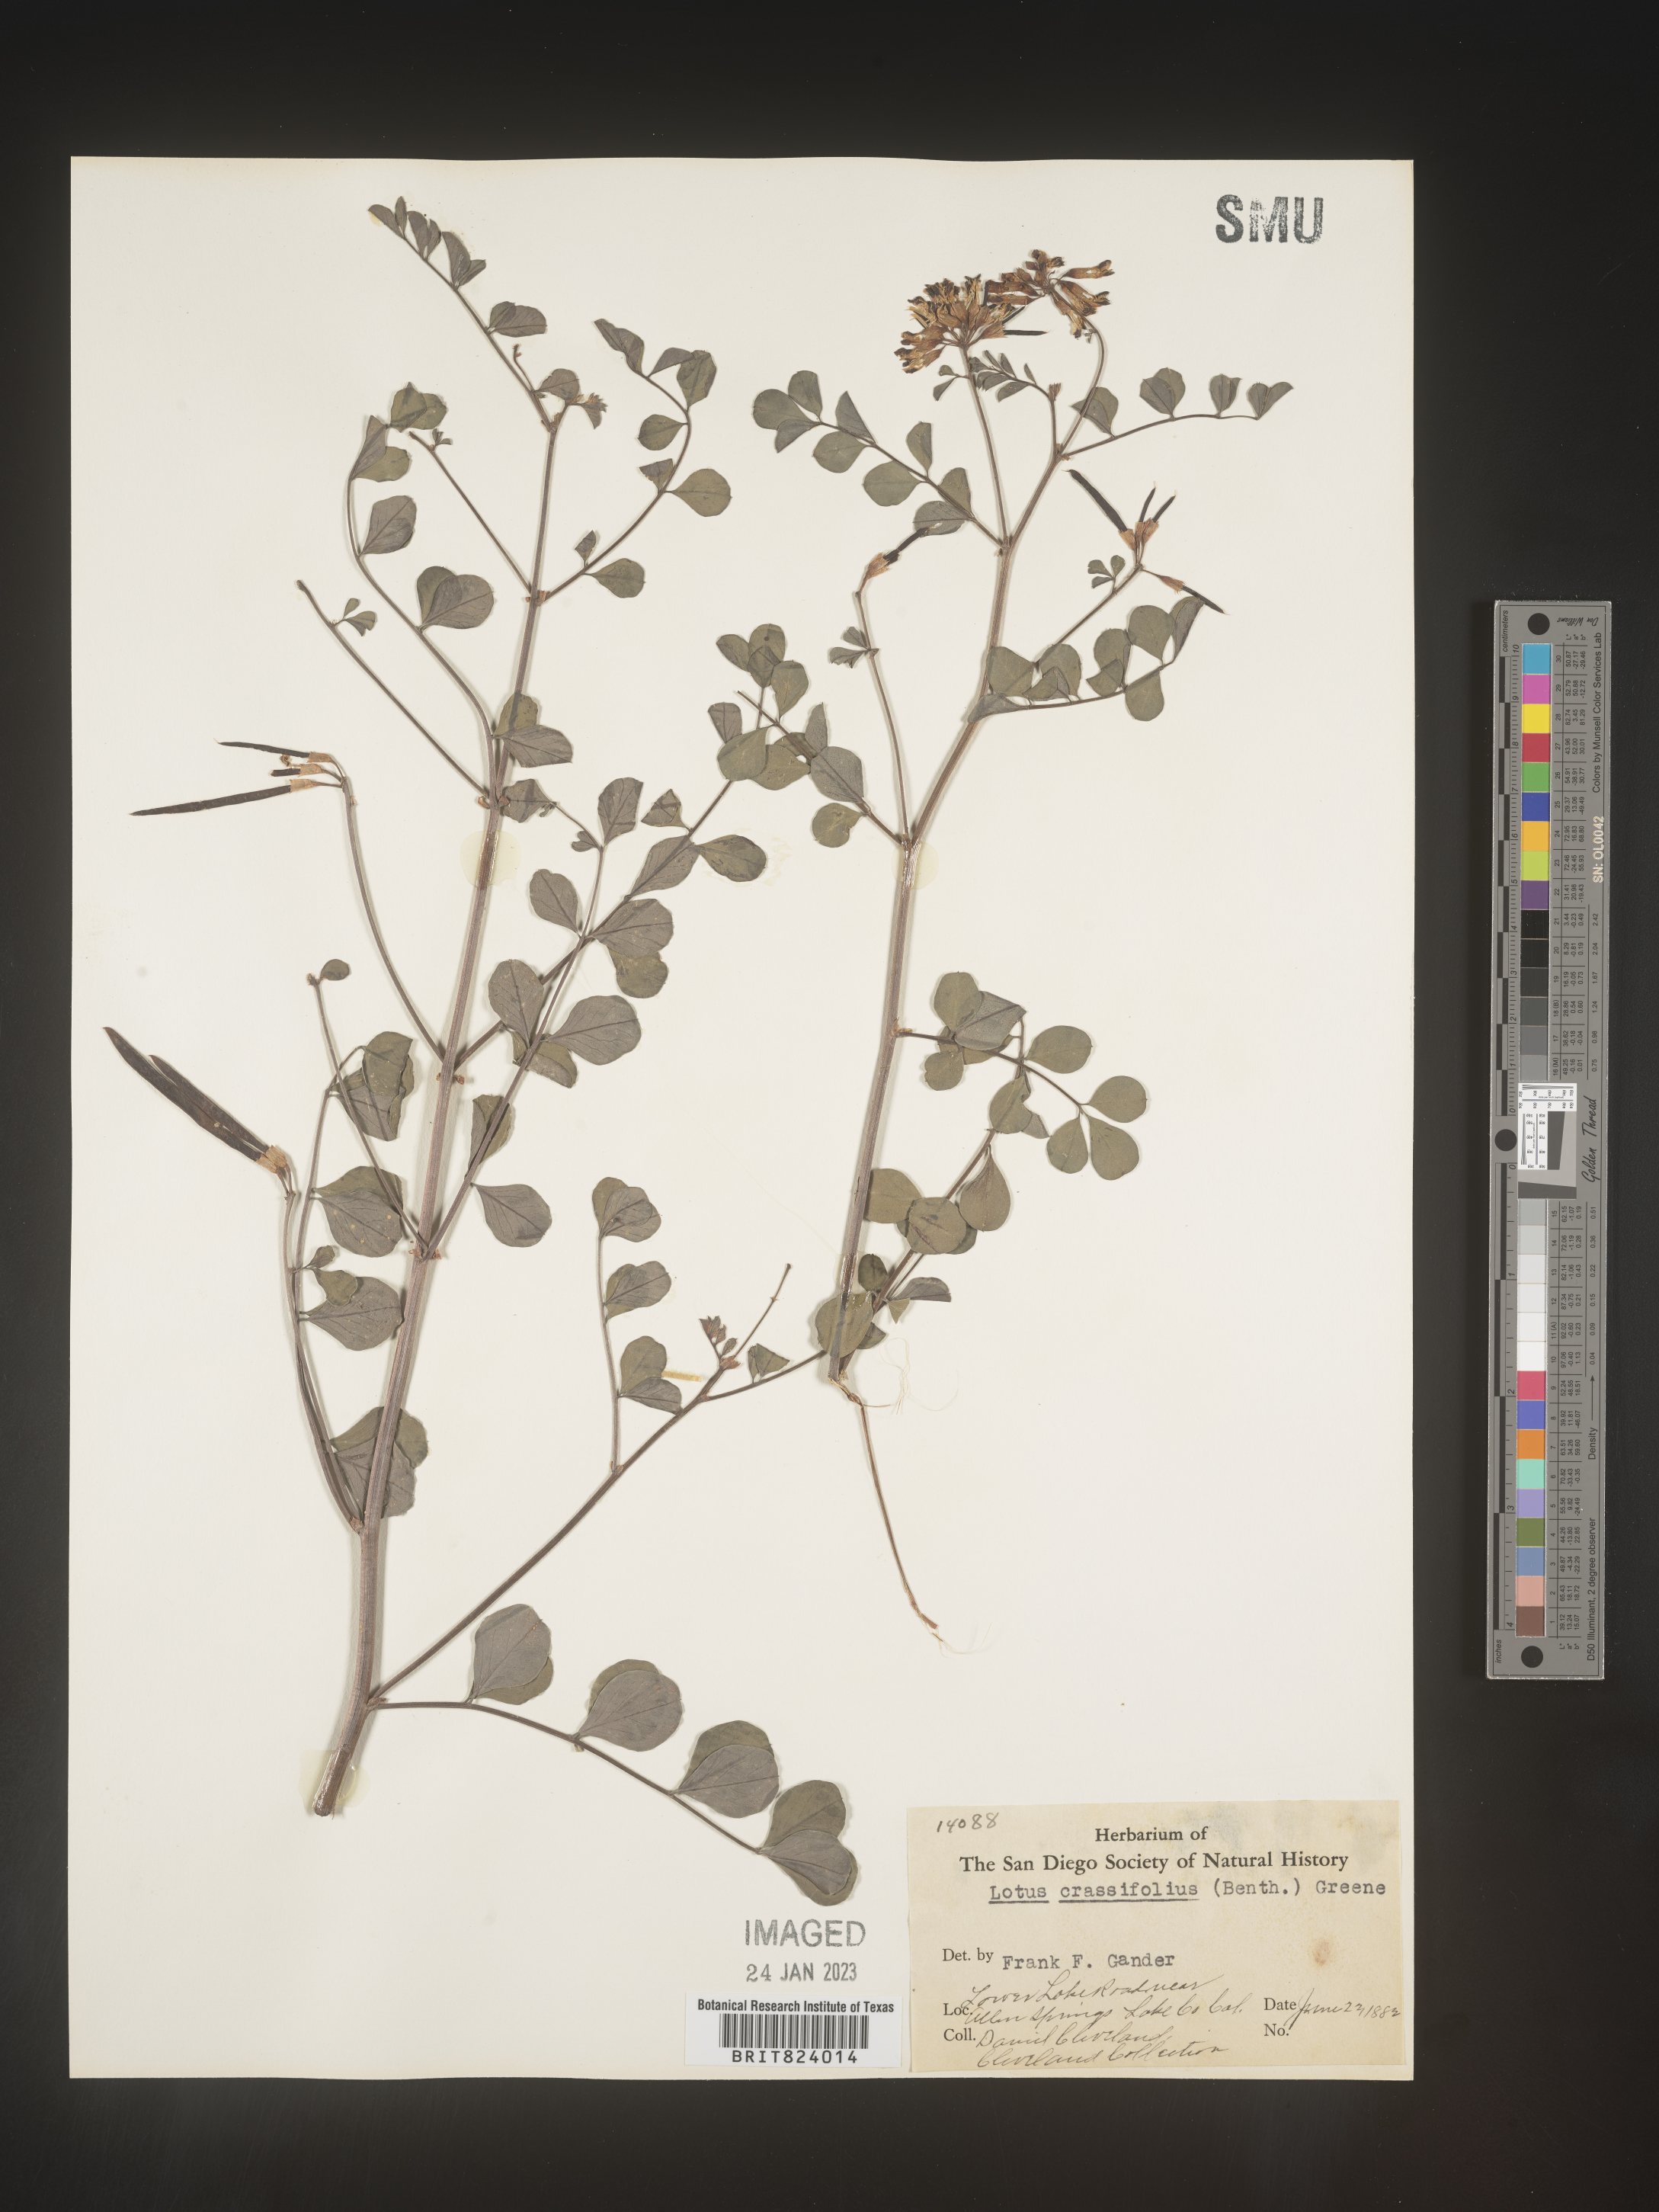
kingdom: Plantae
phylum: Tracheophyta
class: Magnoliopsida
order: Fabales
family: Fabaceae
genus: Hosackia
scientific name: Hosackia crassifolia
